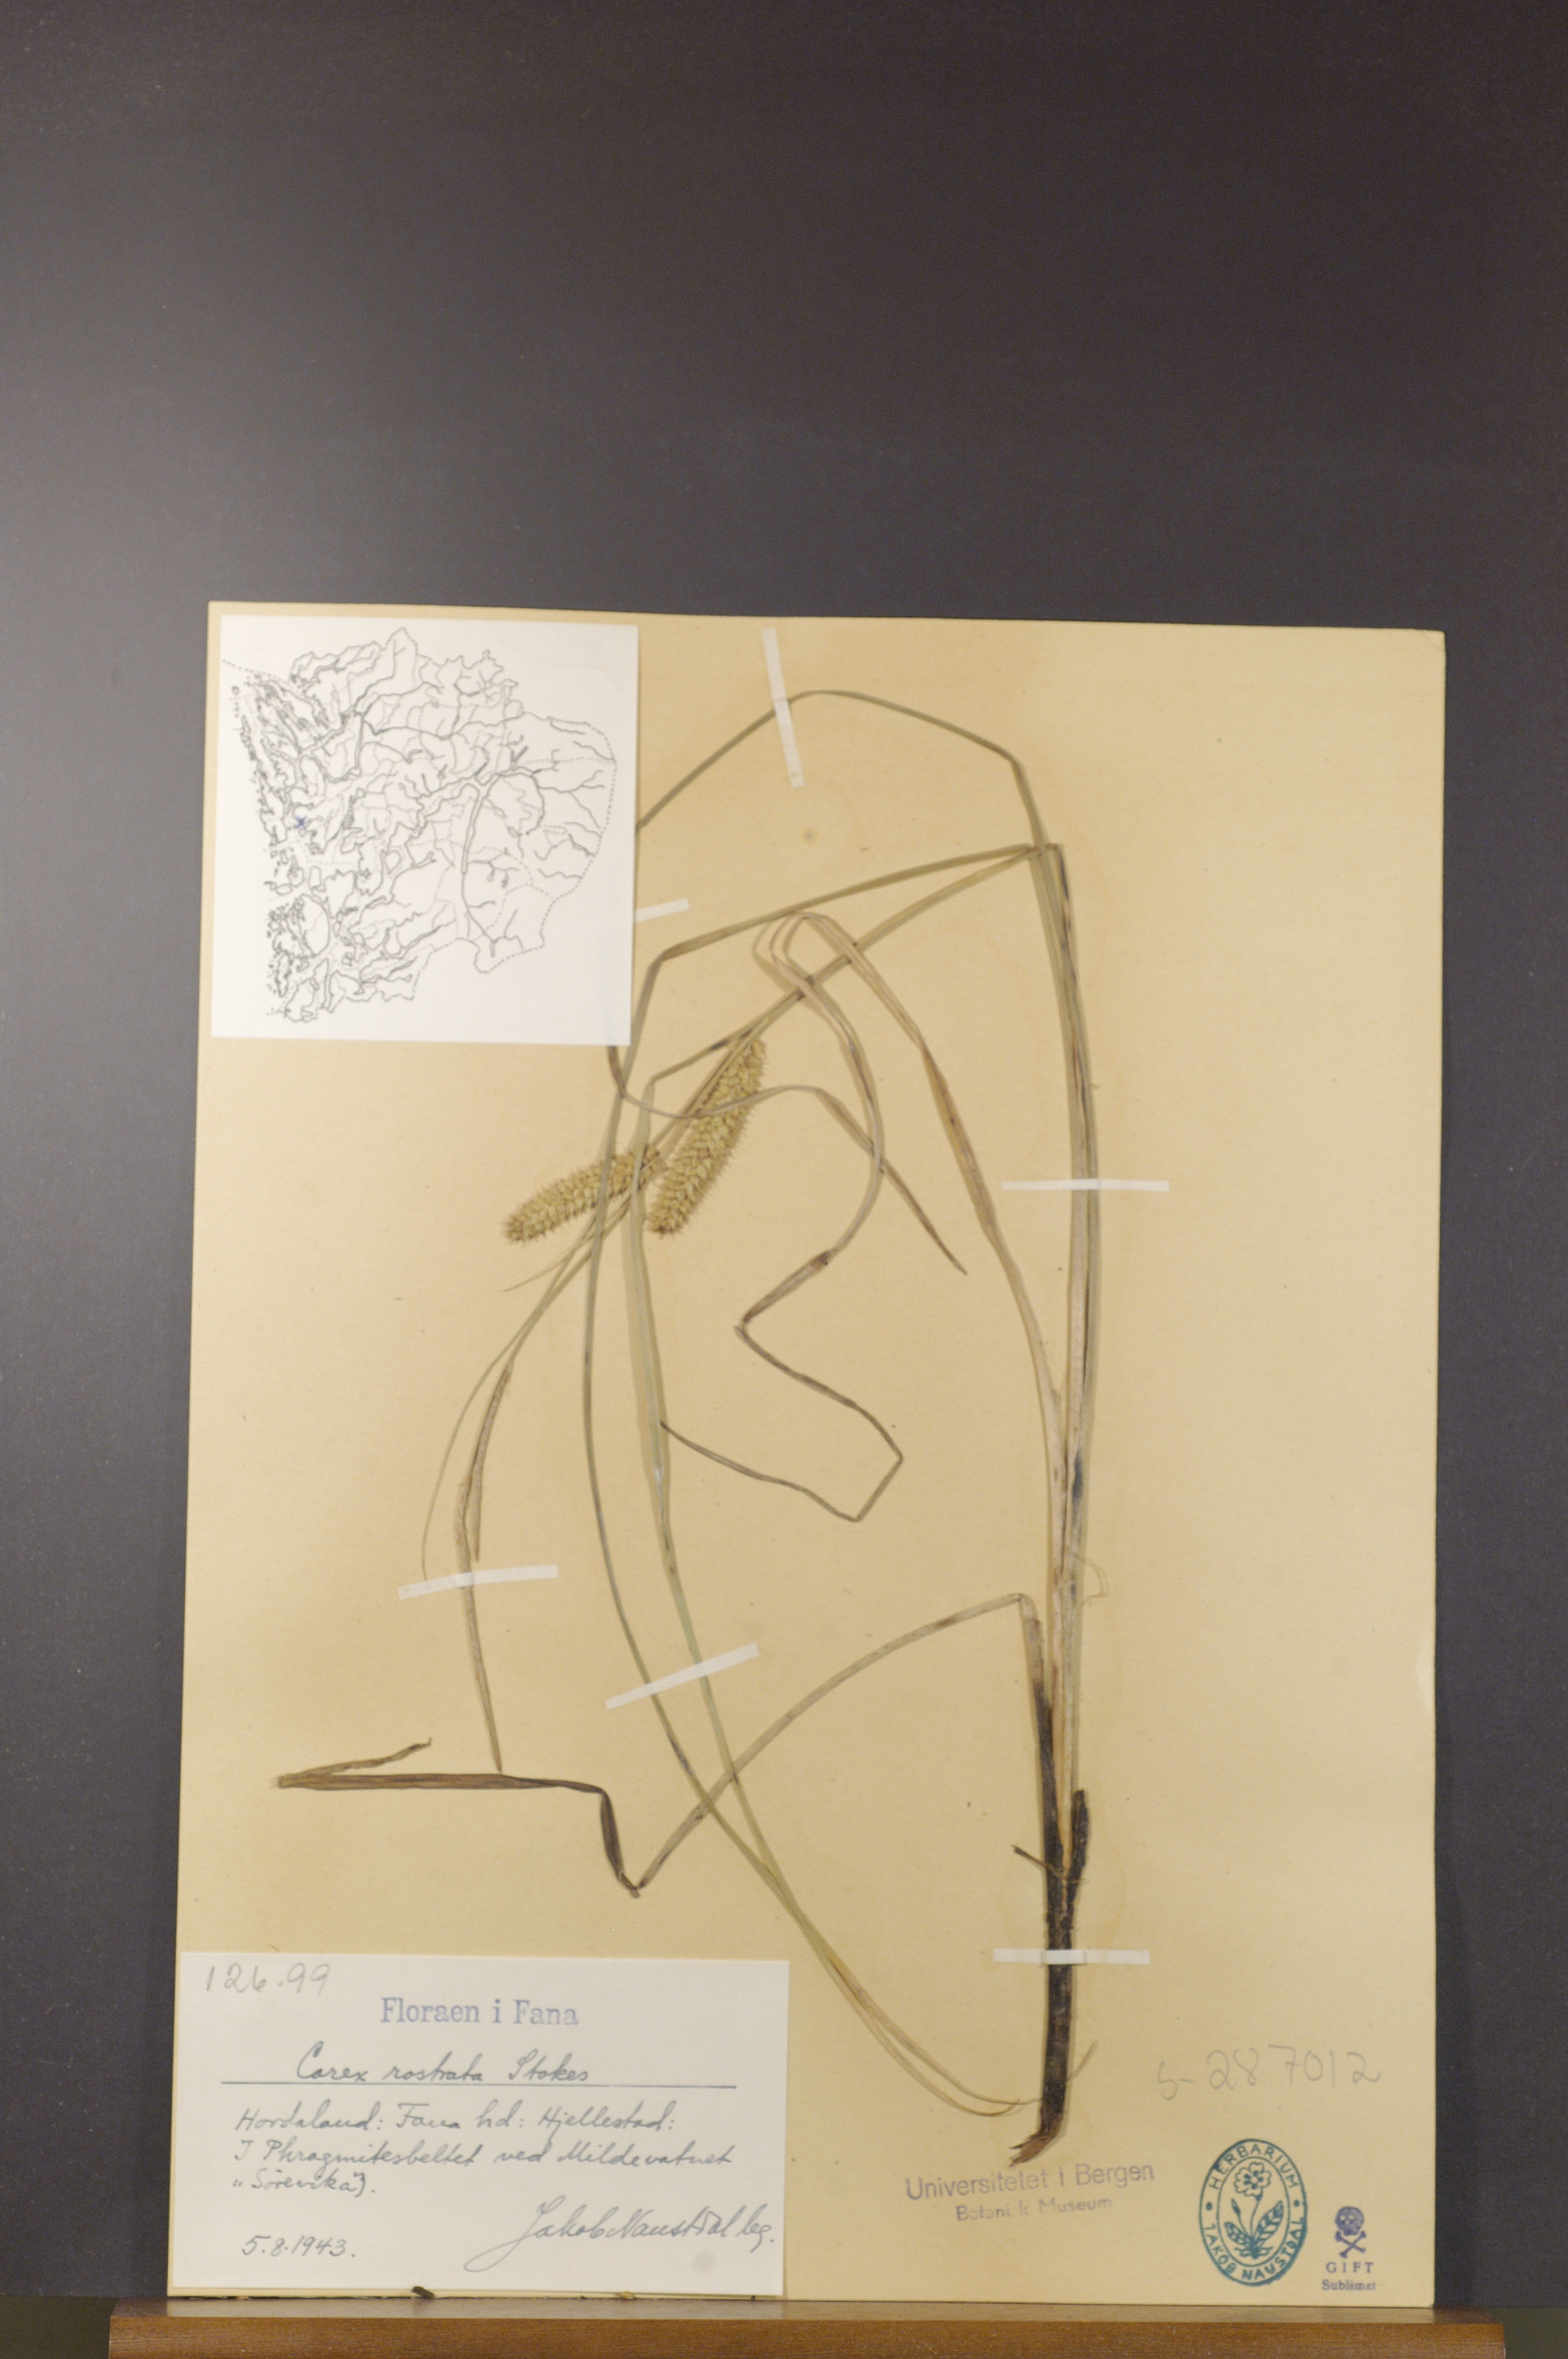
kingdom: Plantae
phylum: Tracheophyta
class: Liliopsida
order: Poales
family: Cyperaceae
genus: Carex
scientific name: Carex rostrata
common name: Bottle sedge
